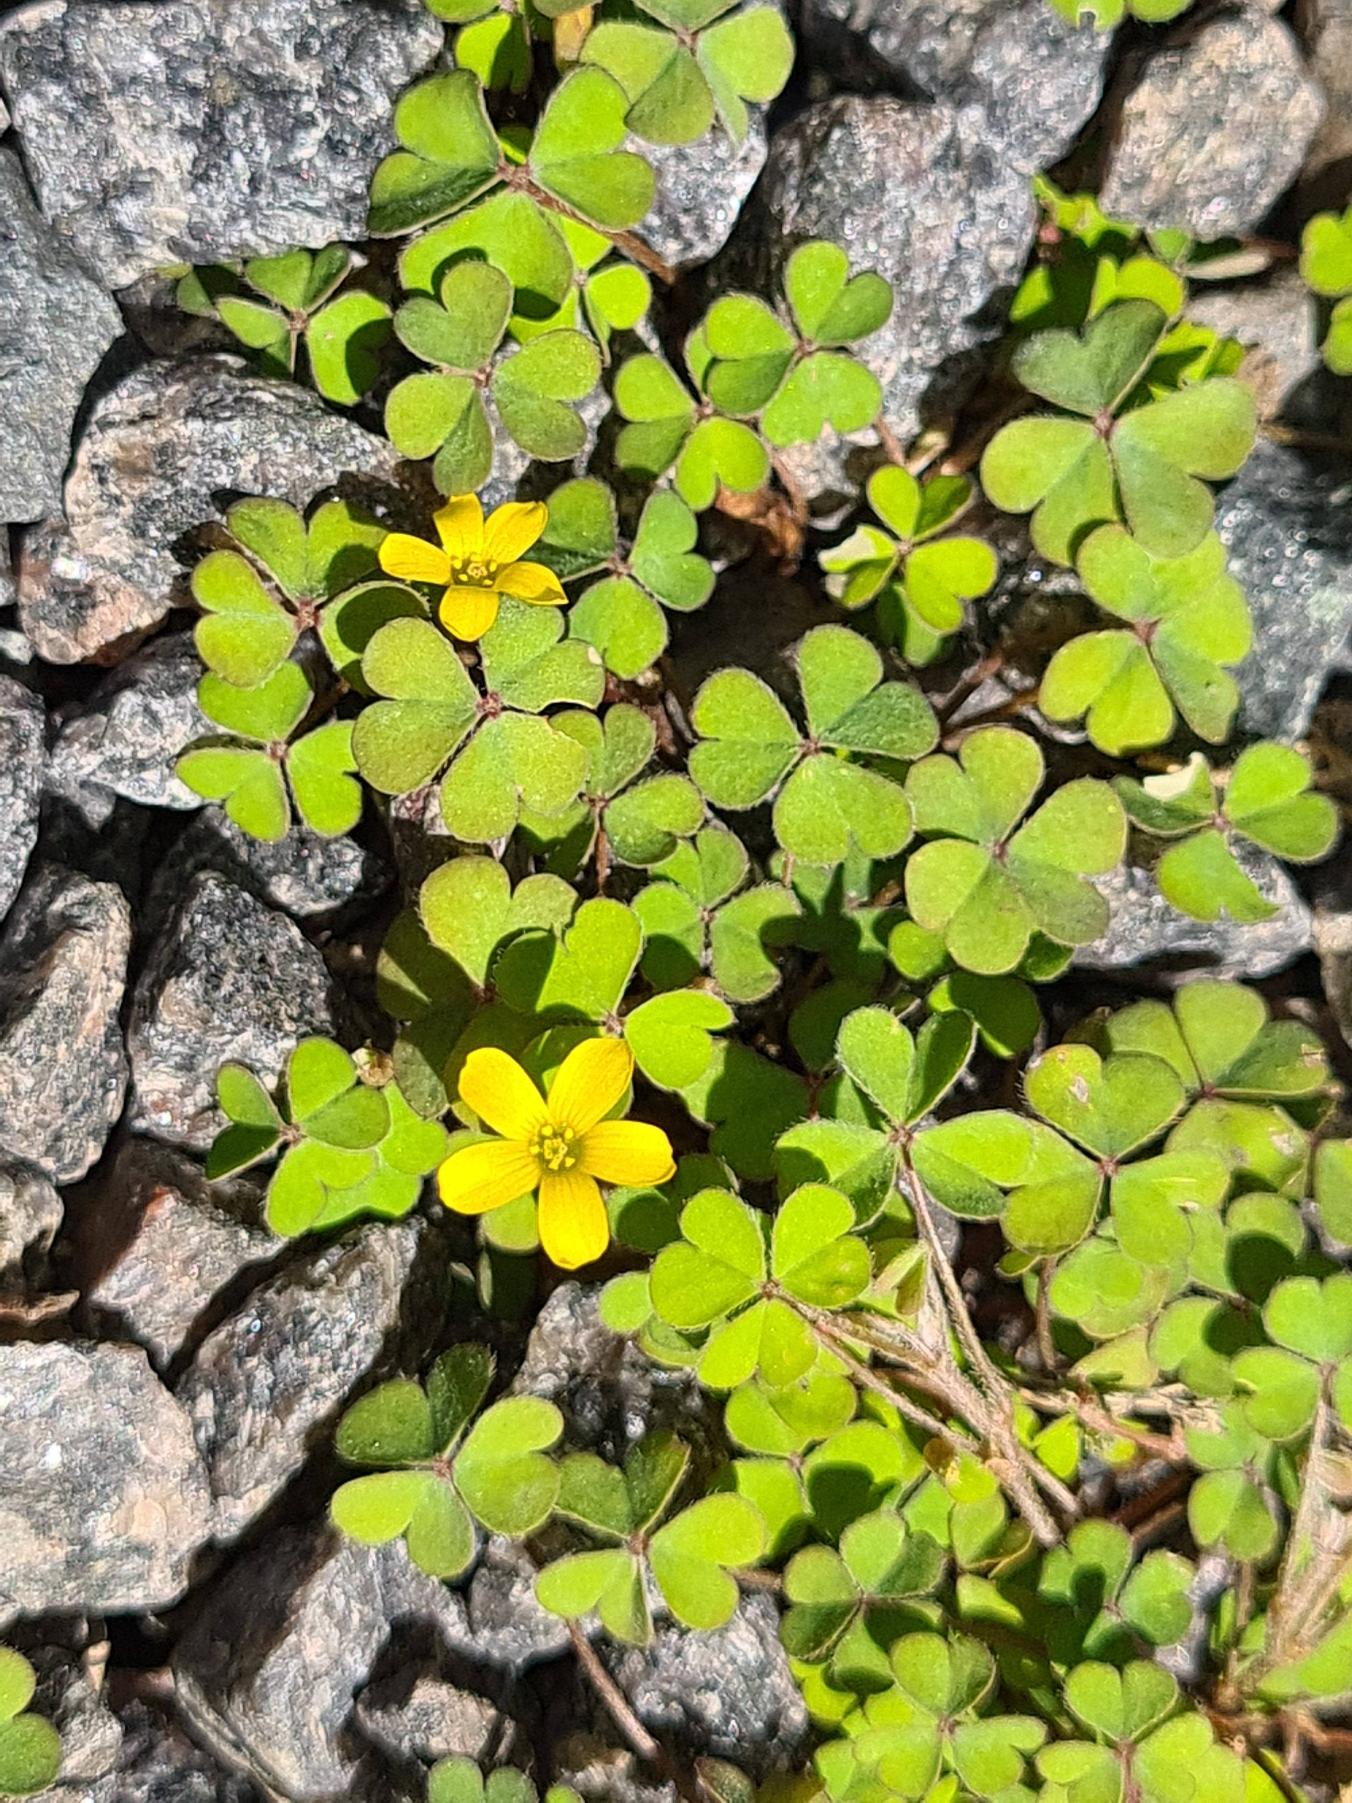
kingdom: Plantae
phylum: Tracheophyta
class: Magnoliopsida
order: Oxalidales
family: Oxalidaceae
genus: Oxalis
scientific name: Oxalis exilis
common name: Spæd surkløver
